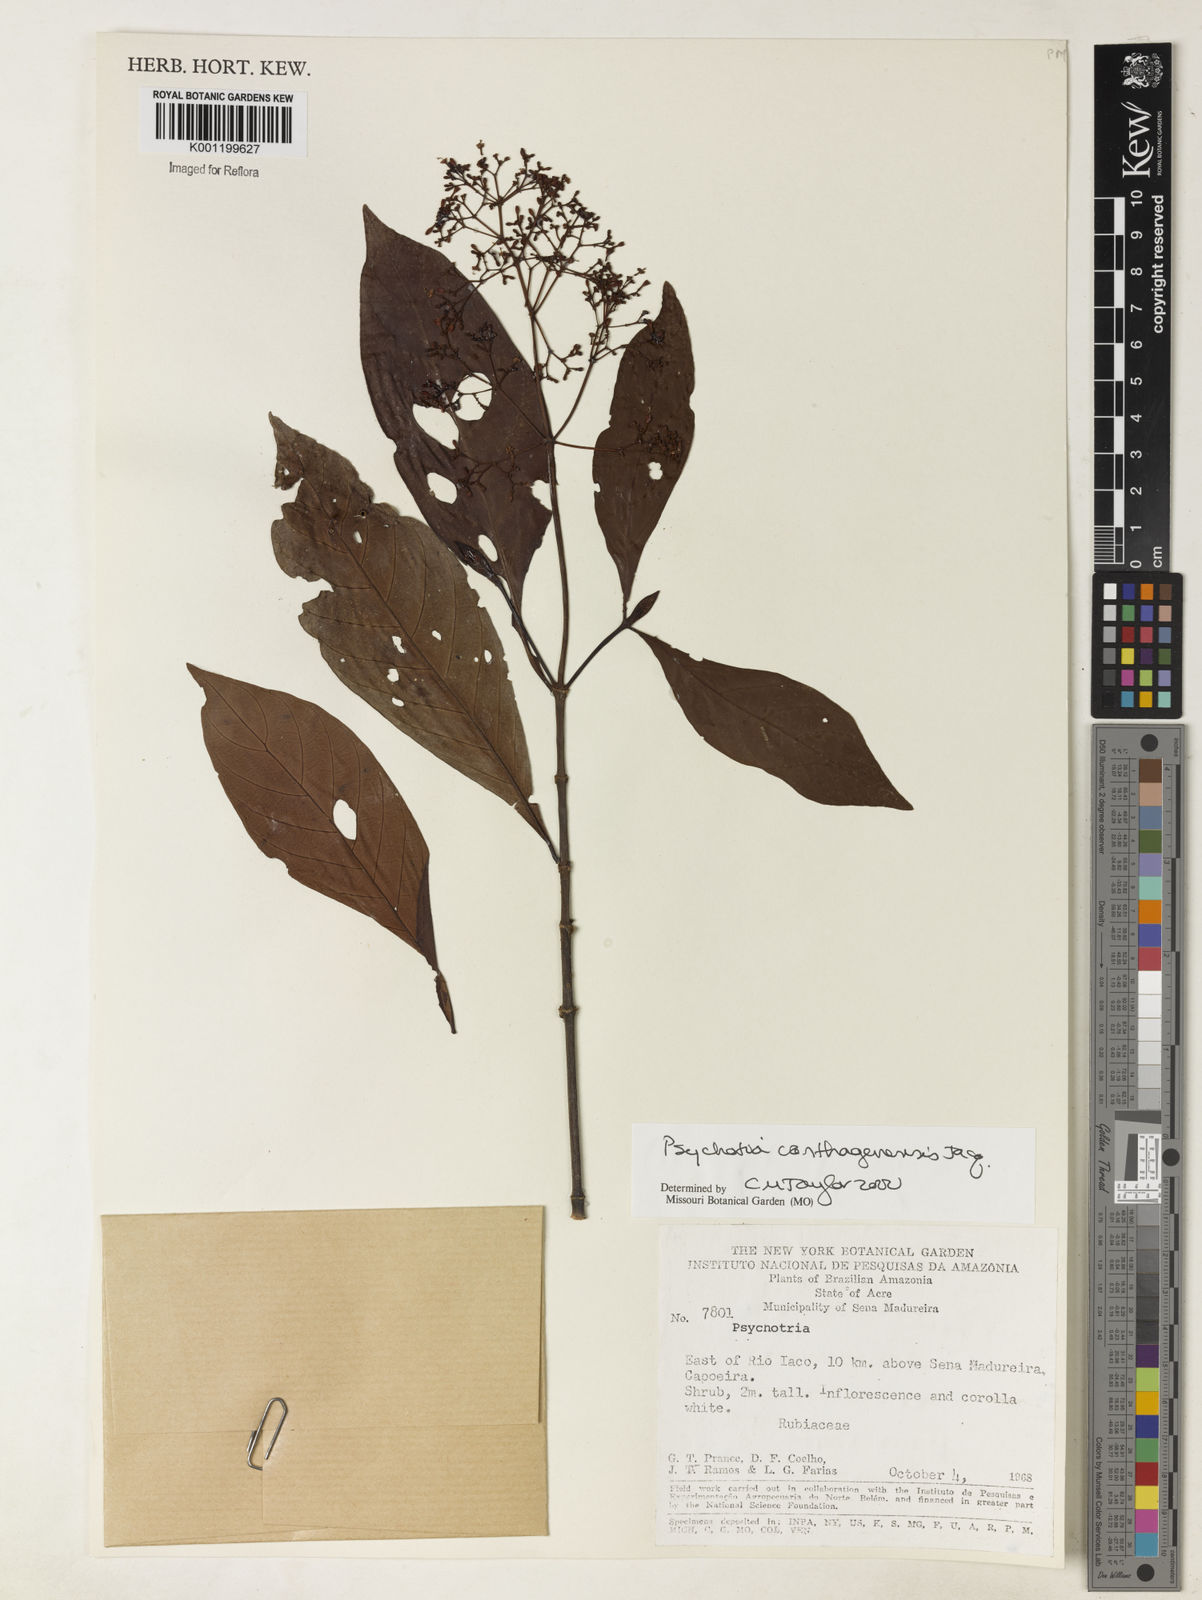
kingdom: Plantae
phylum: Tracheophyta
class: Magnoliopsida
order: Gentianales
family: Rubiaceae
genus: Psychotria
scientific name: Psychotria carthagenensis
